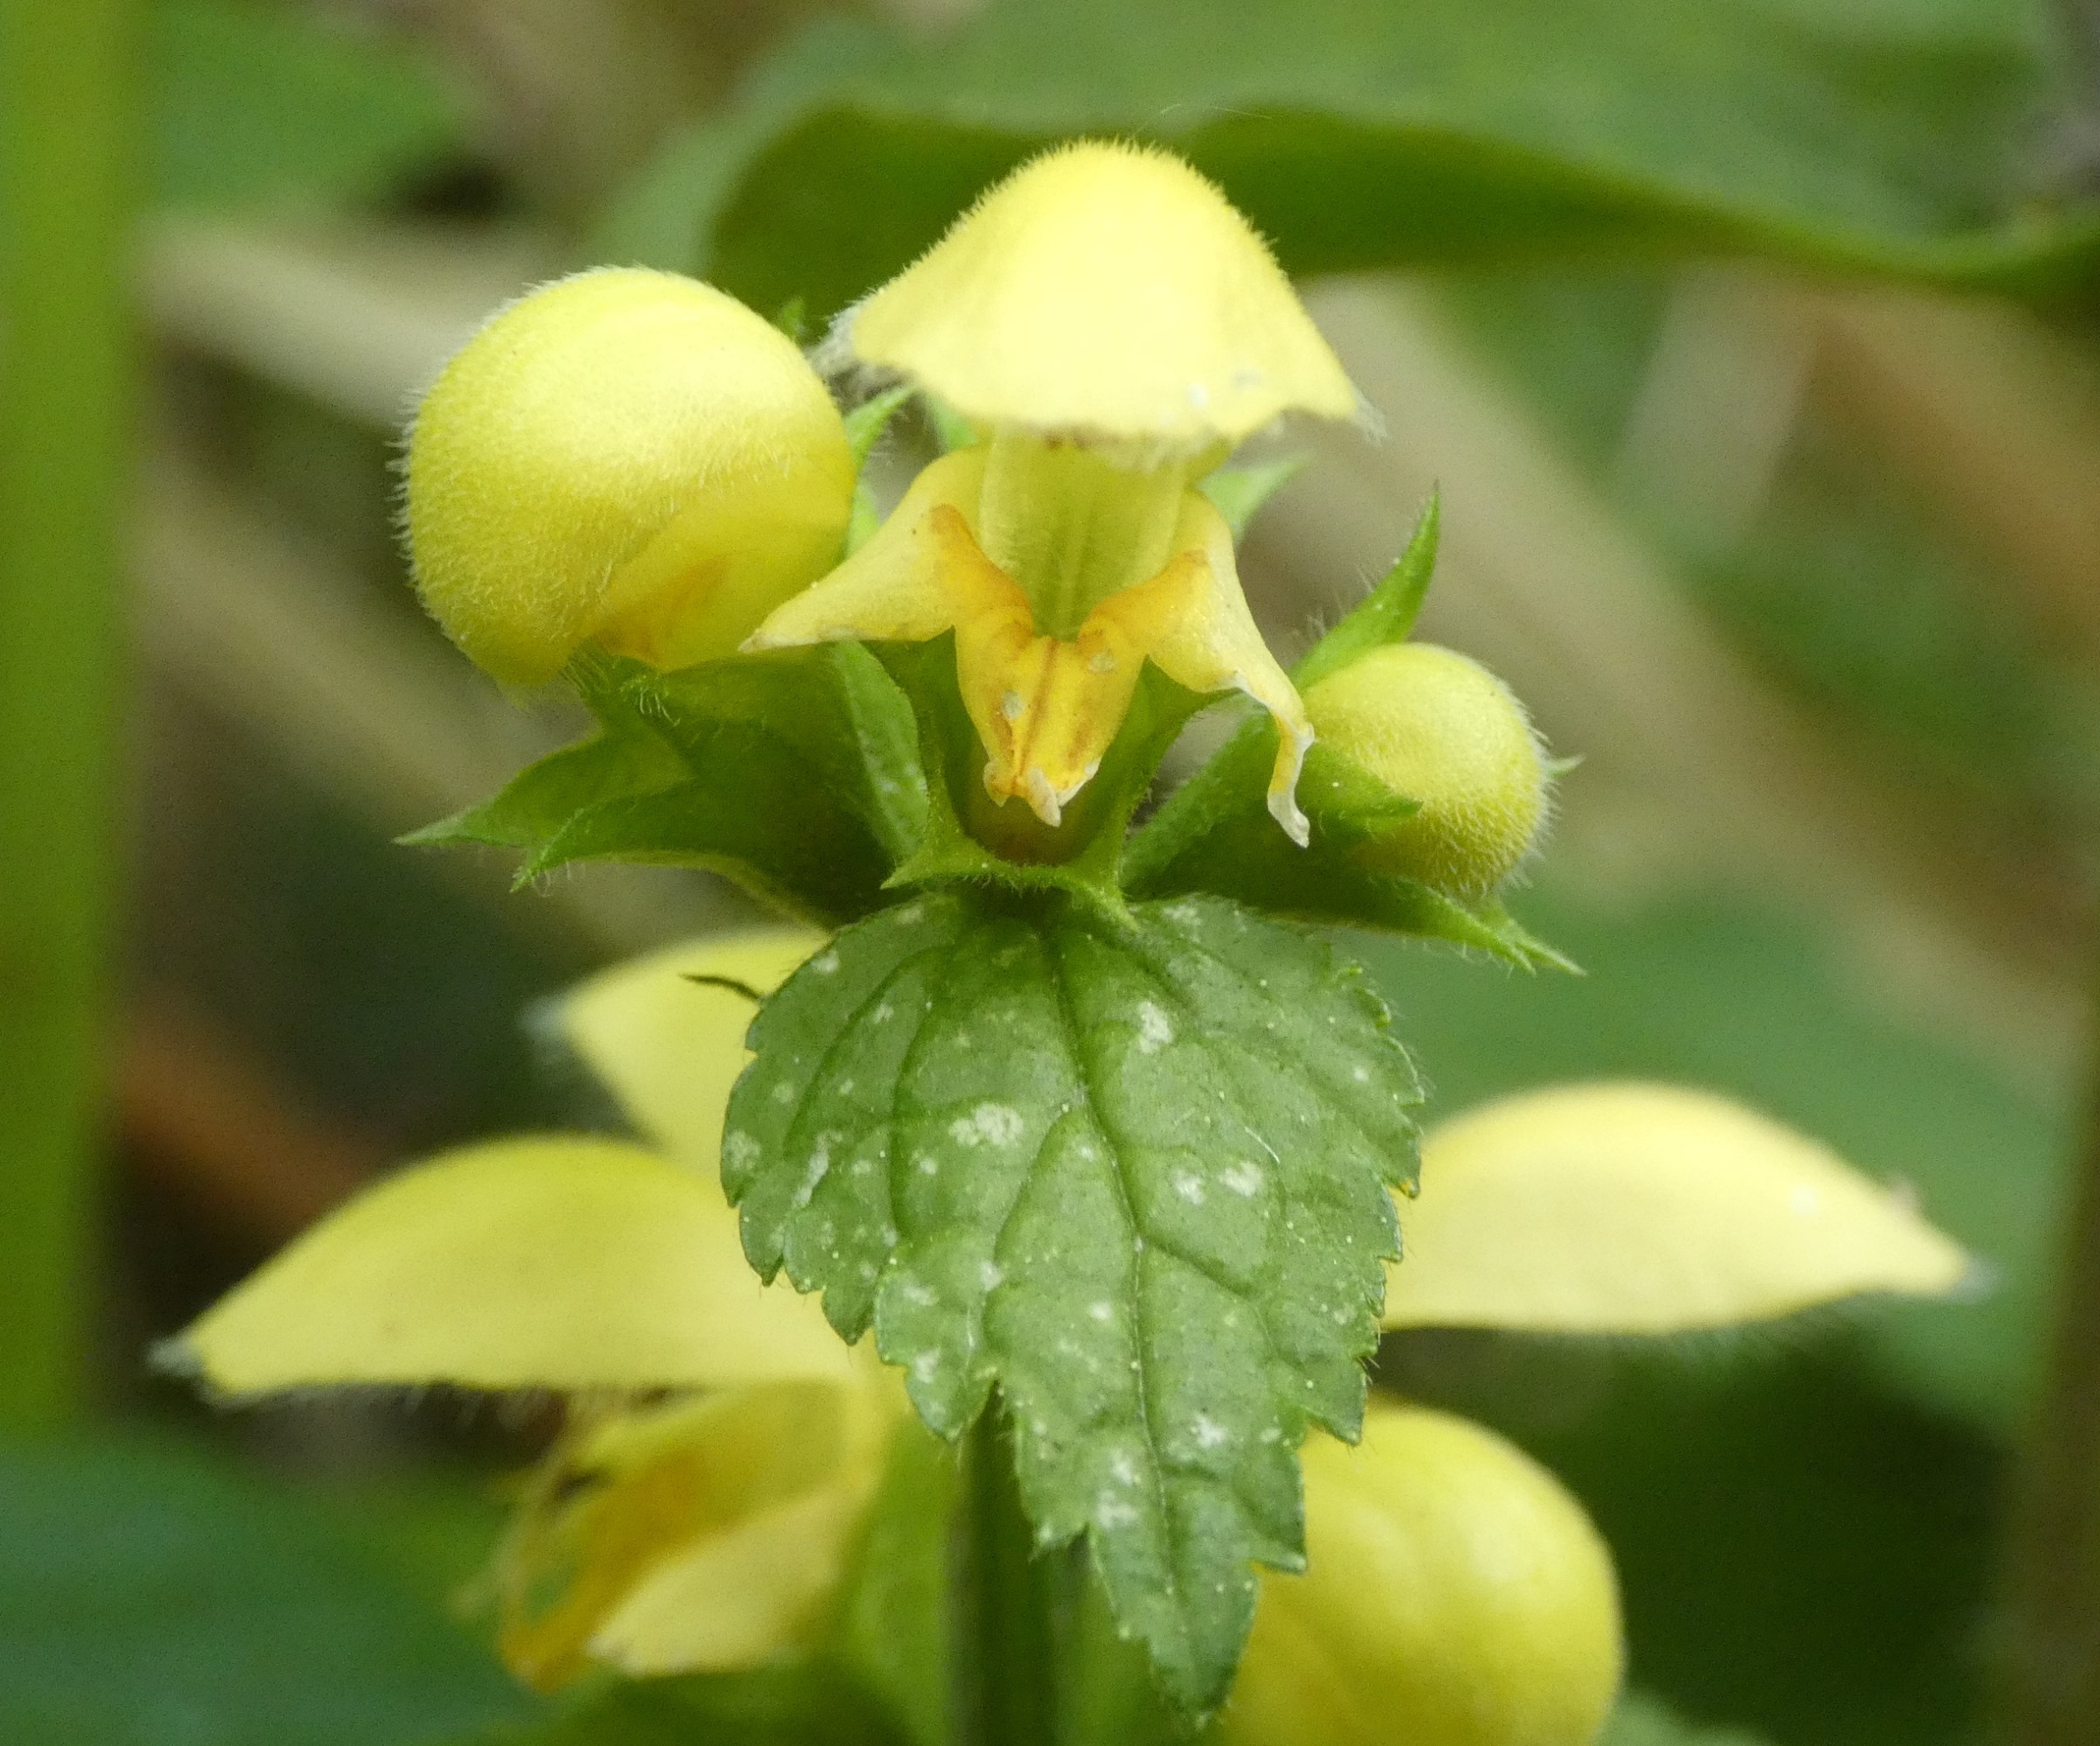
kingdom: Plantae
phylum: Tracheophyta
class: Magnoliopsida
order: Lamiales
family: Lamiaceae
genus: Lamium
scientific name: Lamium galeobdolon
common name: Guldnælde
